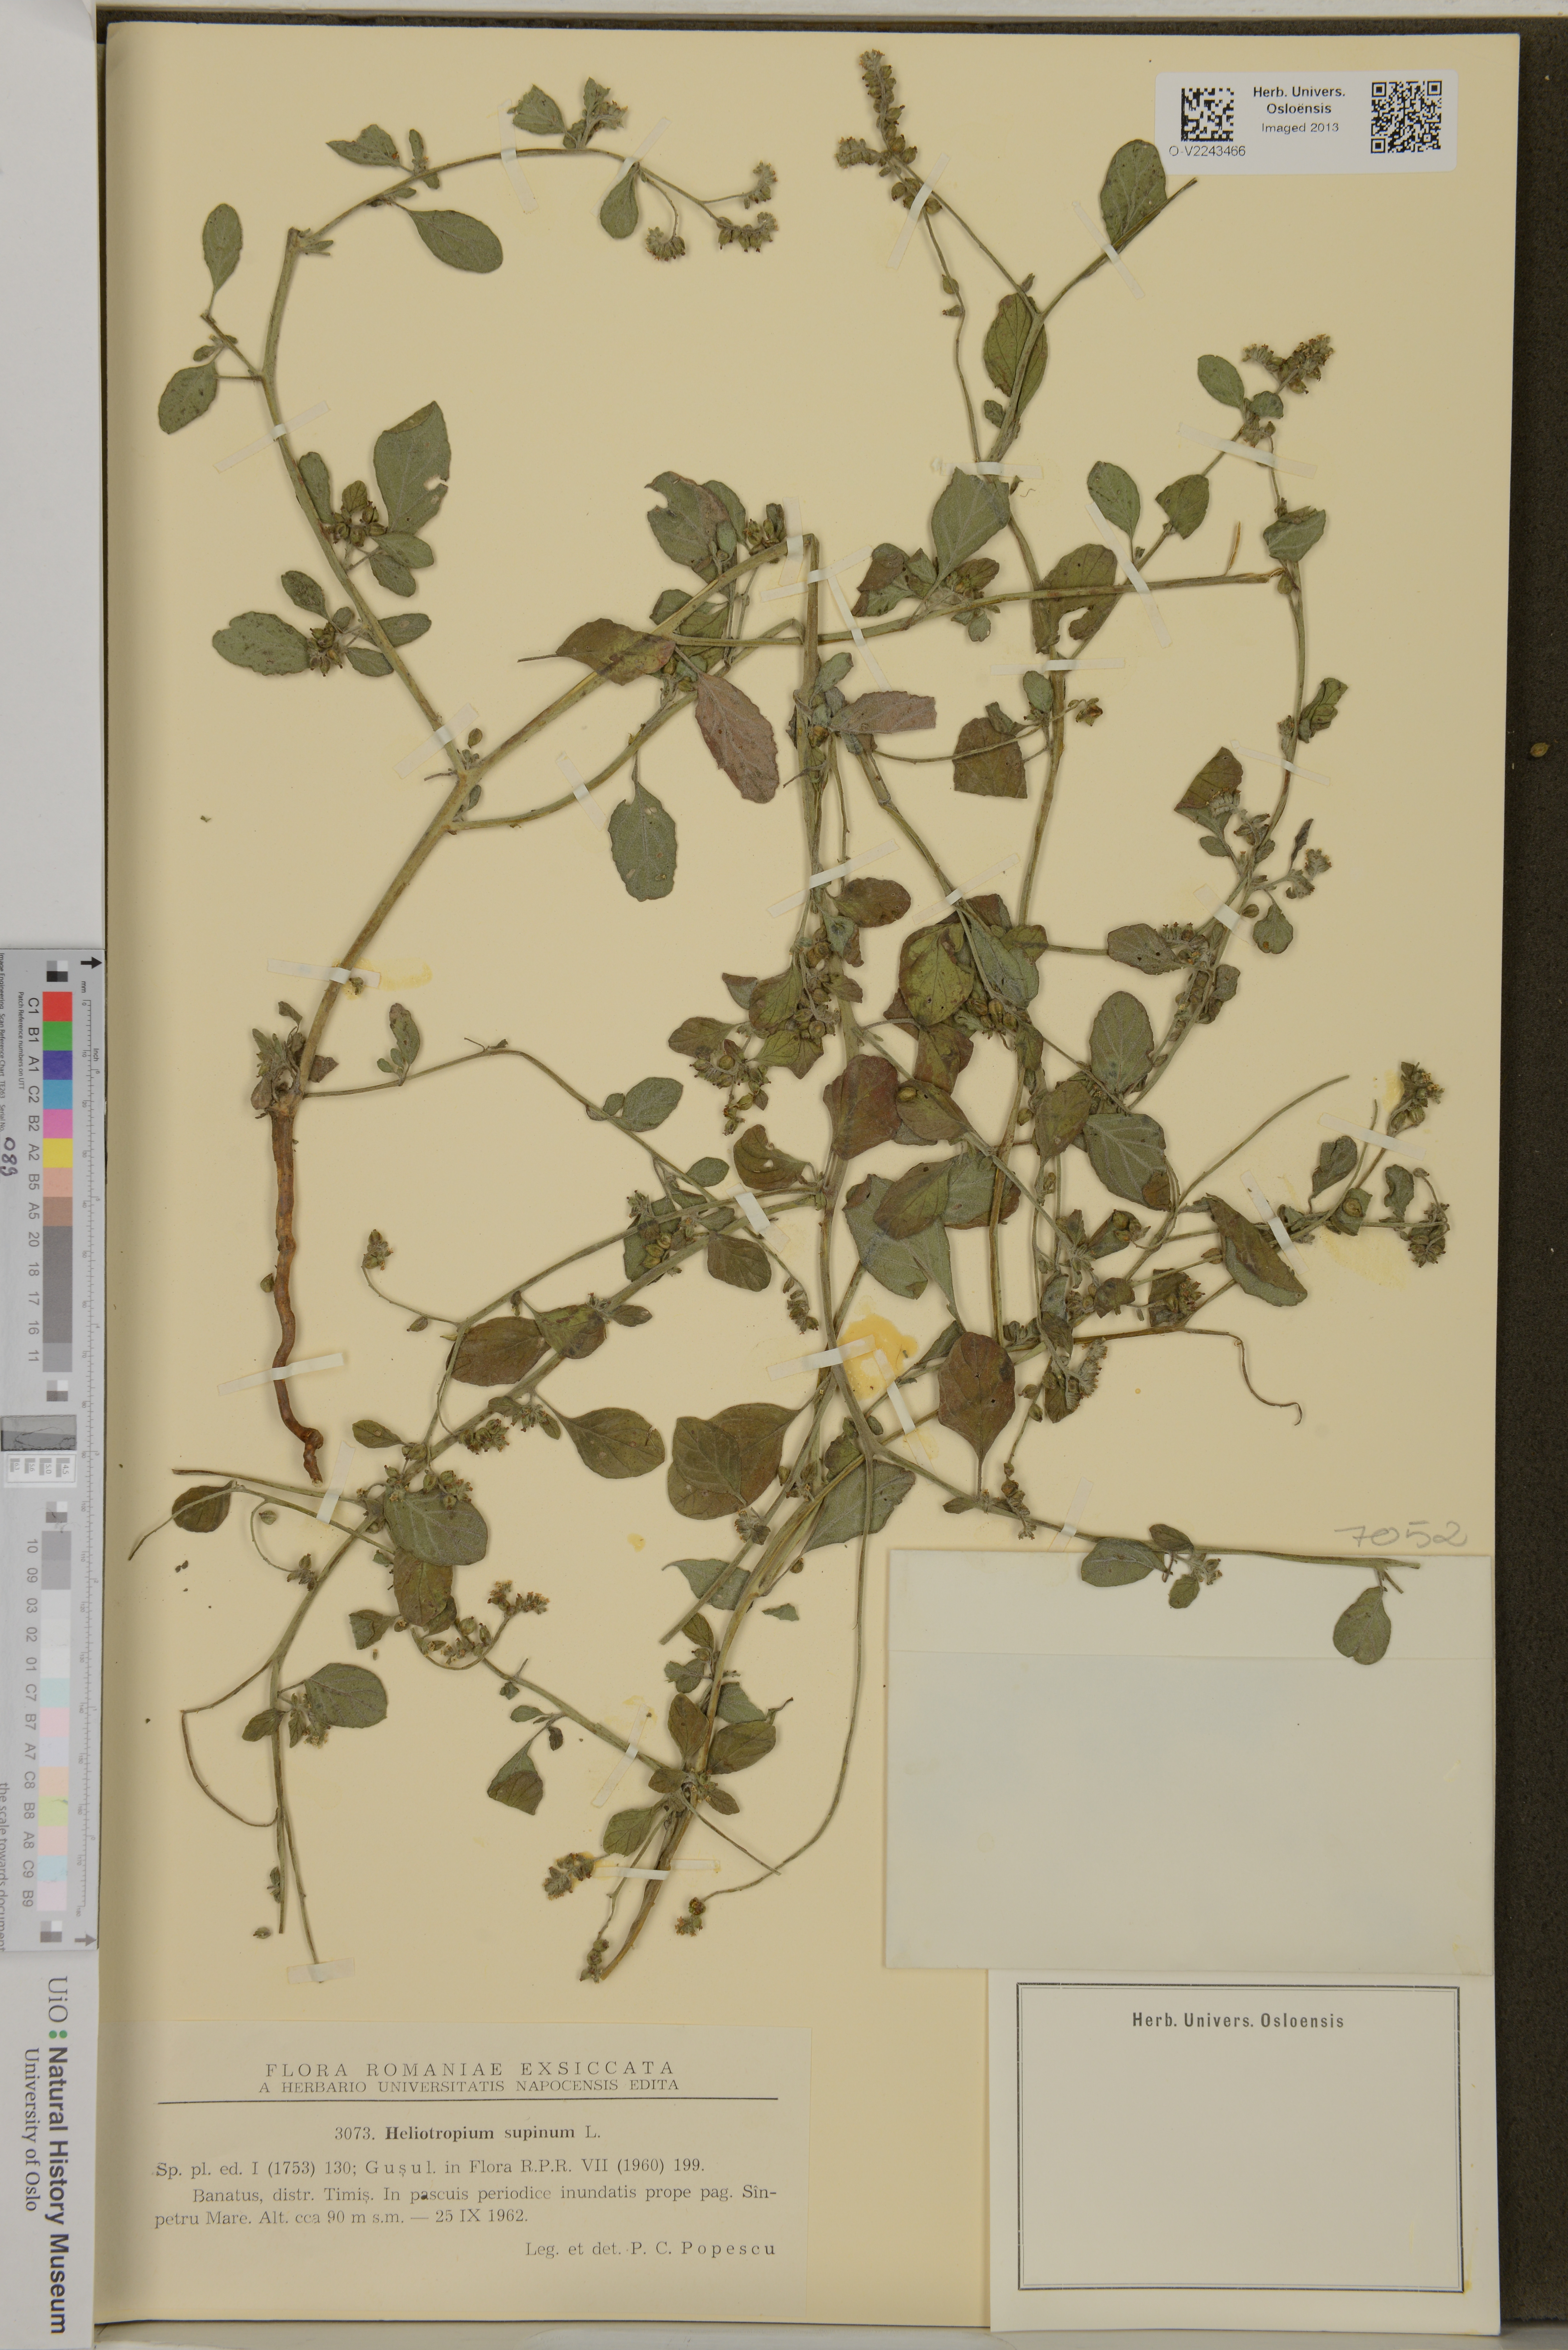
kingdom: Plantae
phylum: Tracheophyta
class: Magnoliopsida
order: Boraginales
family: Heliotropiaceae
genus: Heliotropium
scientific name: Heliotropium supinum
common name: Dwarf heliotrope
